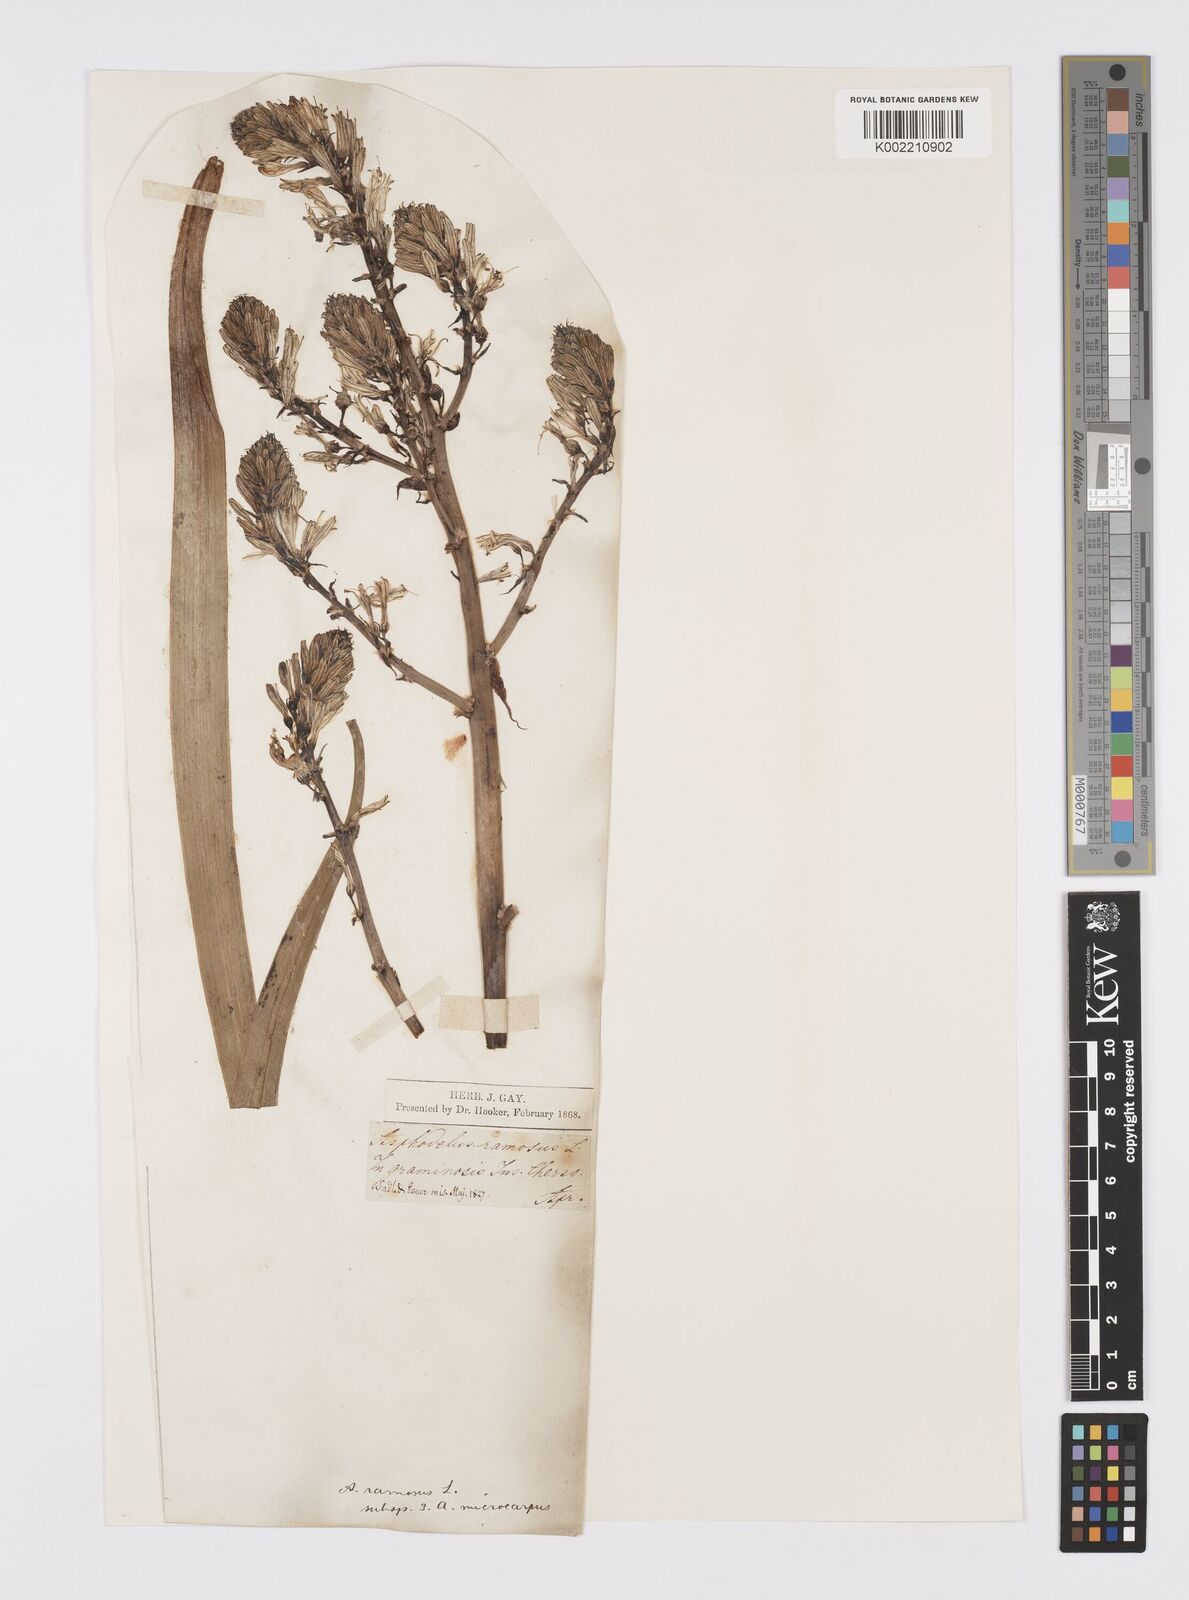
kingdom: Plantae
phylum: Tracheophyta
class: Liliopsida
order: Asparagales
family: Asphodelaceae
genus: Asphodelus
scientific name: Asphodelus ramosus
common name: Silverrod
